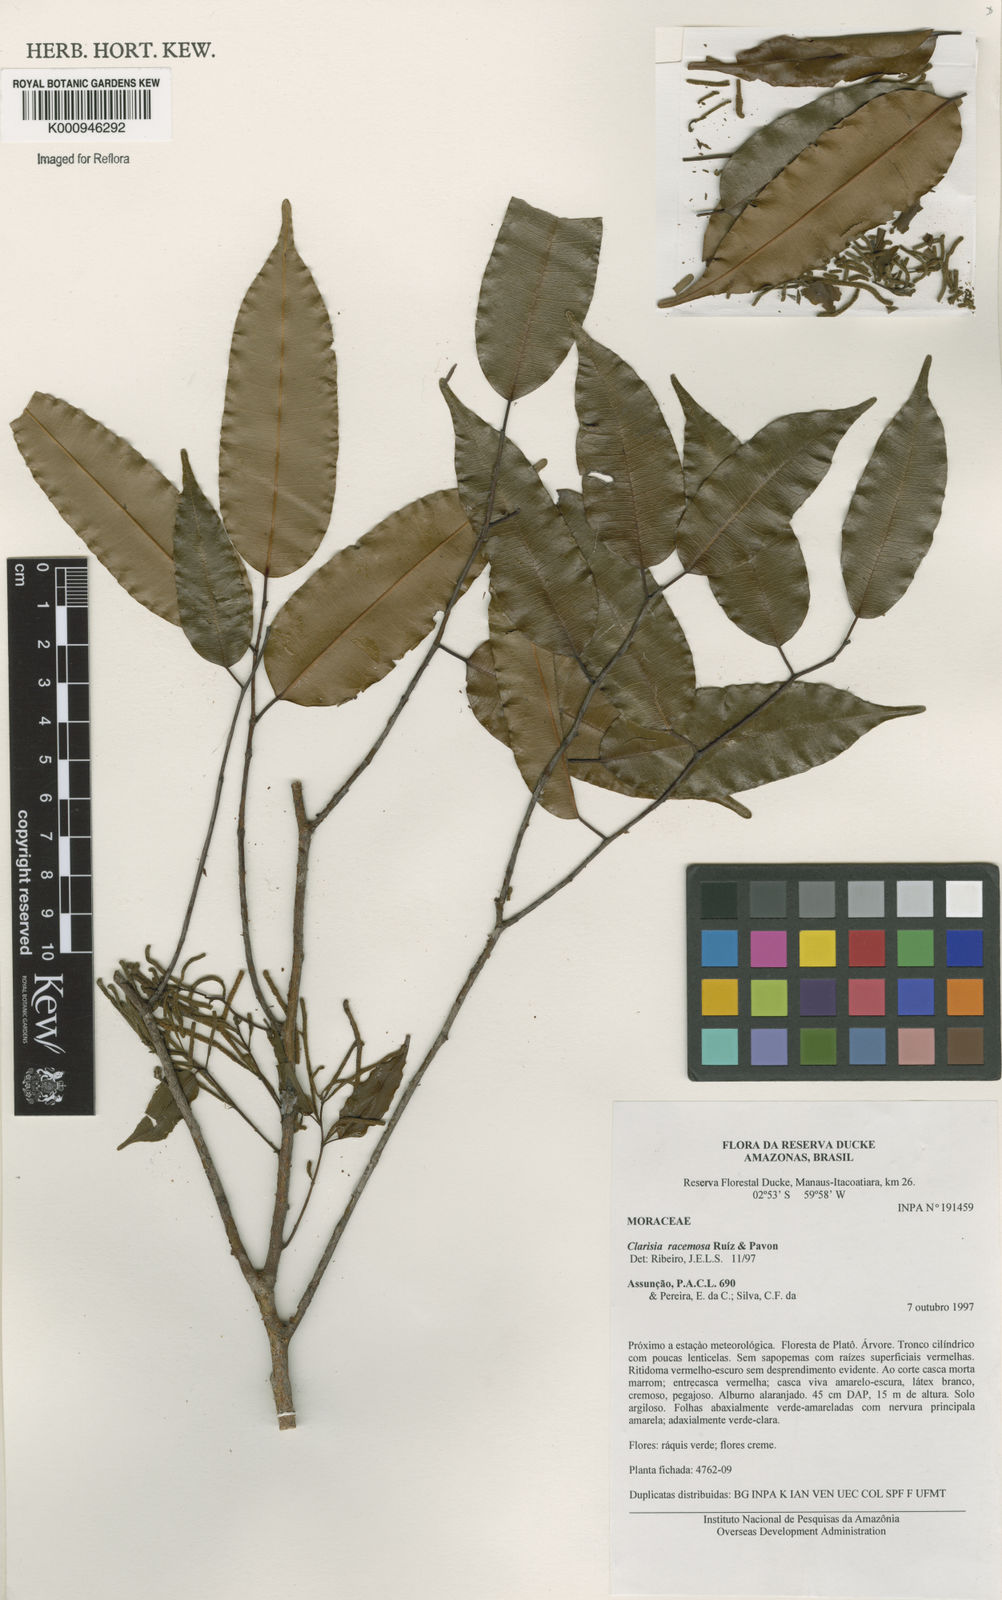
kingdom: Plantae
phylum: Tracheophyta
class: Magnoliopsida
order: Rosales
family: Moraceae
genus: Clarisia
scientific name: Clarisia racemosa
